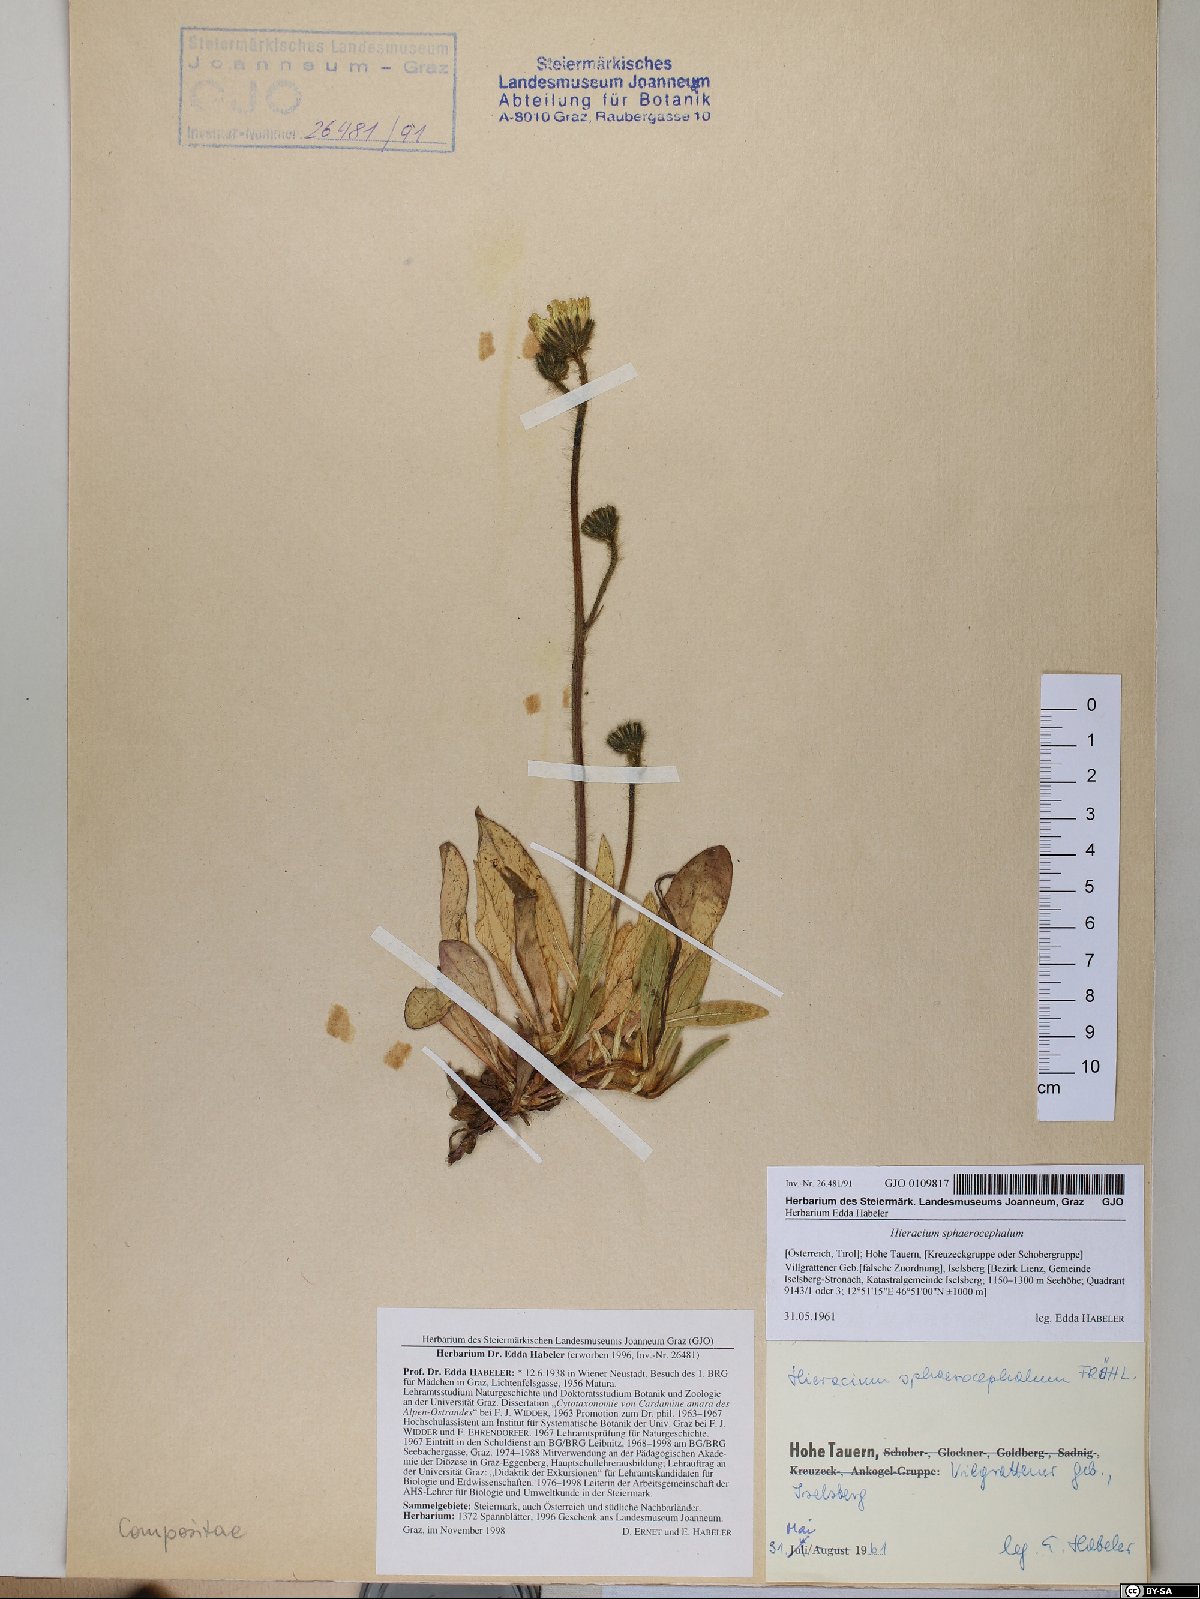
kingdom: Plantae
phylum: Tracheophyta
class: Magnoliopsida
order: Asterales
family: Asteraceae
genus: Pilosella
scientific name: Pilosella sphaerocephala
